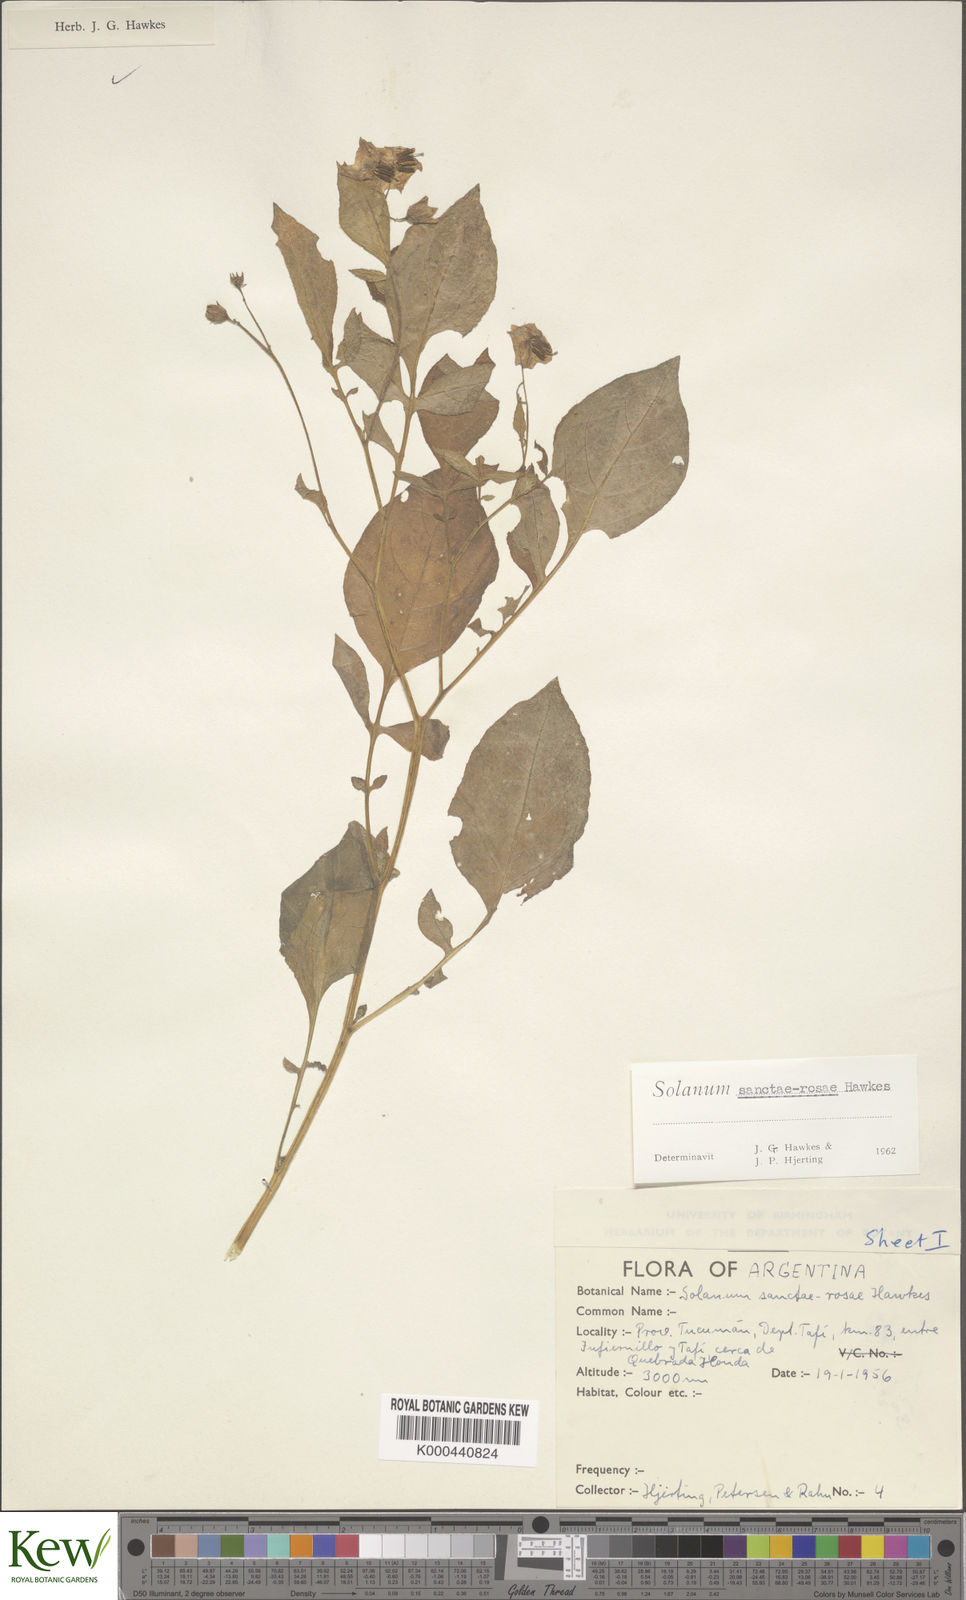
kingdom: Plantae
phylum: Tracheophyta
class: Magnoliopsida
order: Solanales
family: Solanaceae
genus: Solanum
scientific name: Solanum boliviense
